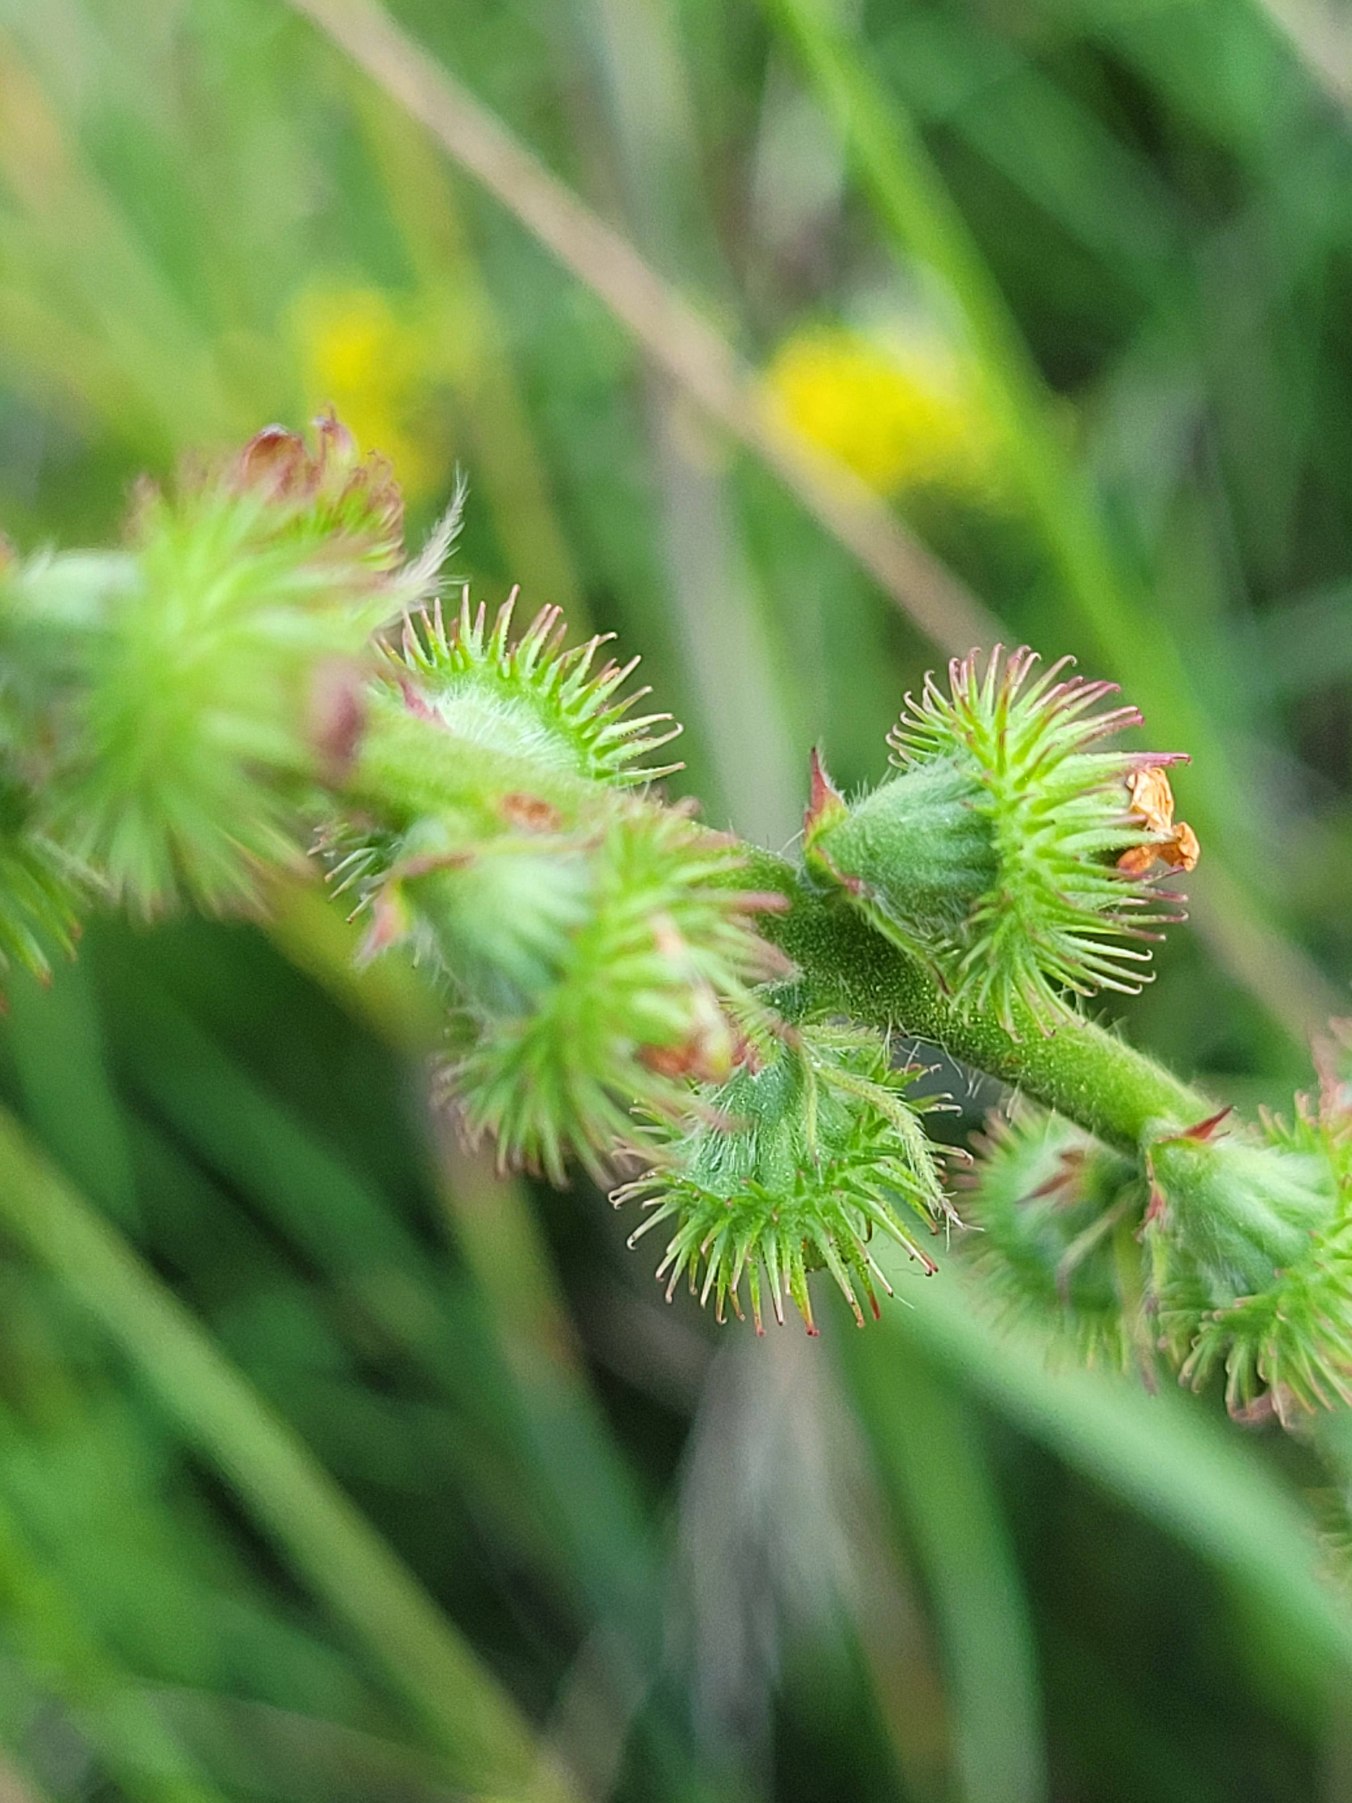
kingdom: Plantae
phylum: Tracheophyta
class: Magnoliopsida
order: Rosales
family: Rosaceae
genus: Agrimonia
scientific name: Agrimonia procera
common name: Vellugtende agermåne
